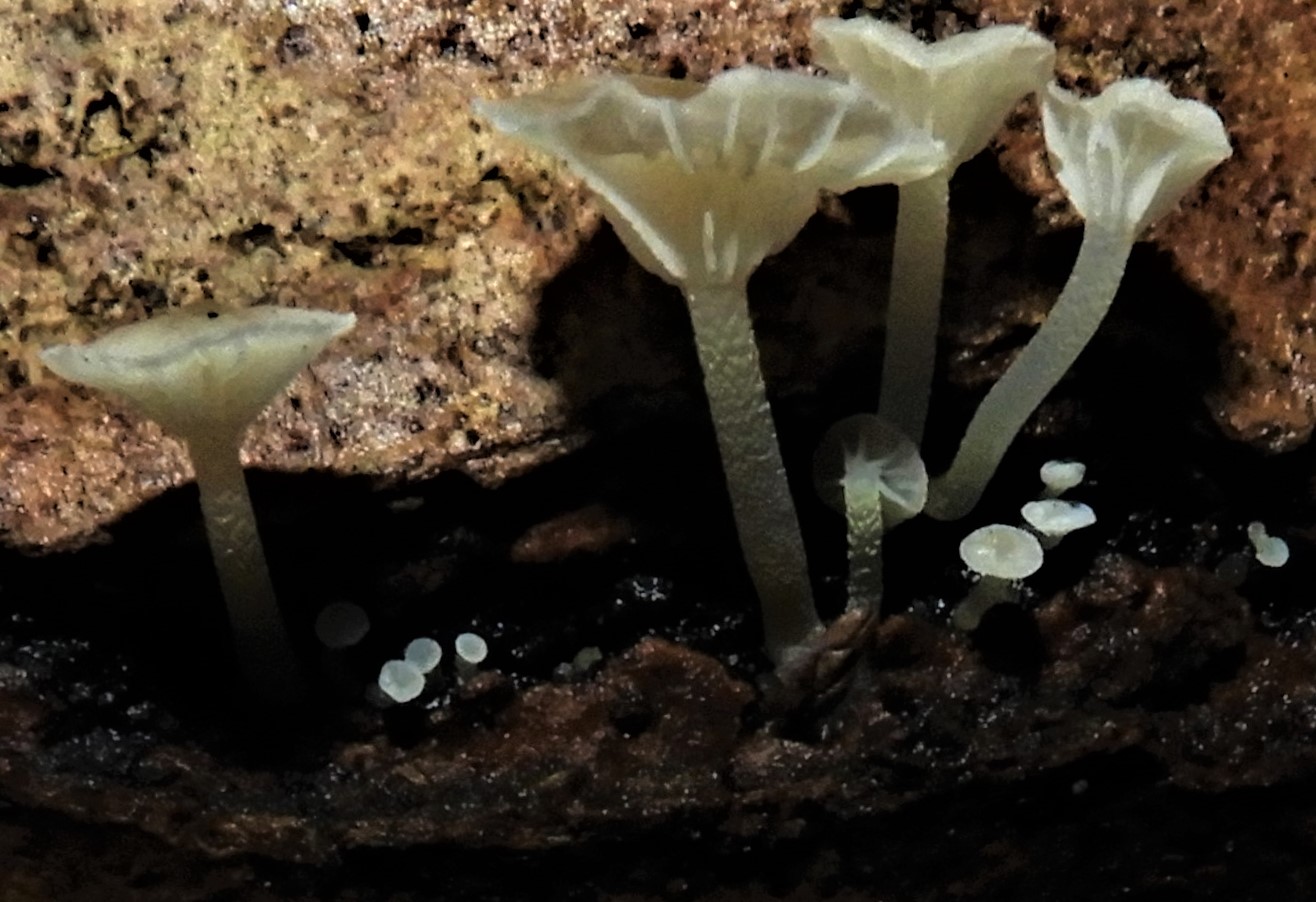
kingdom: Fungi
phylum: Basidiomycota
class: Agaricomycetes
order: Agaricales
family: Porotheleaceae
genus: Phloeomana
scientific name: Phloeomana speirea
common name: kvist-huesvamp
